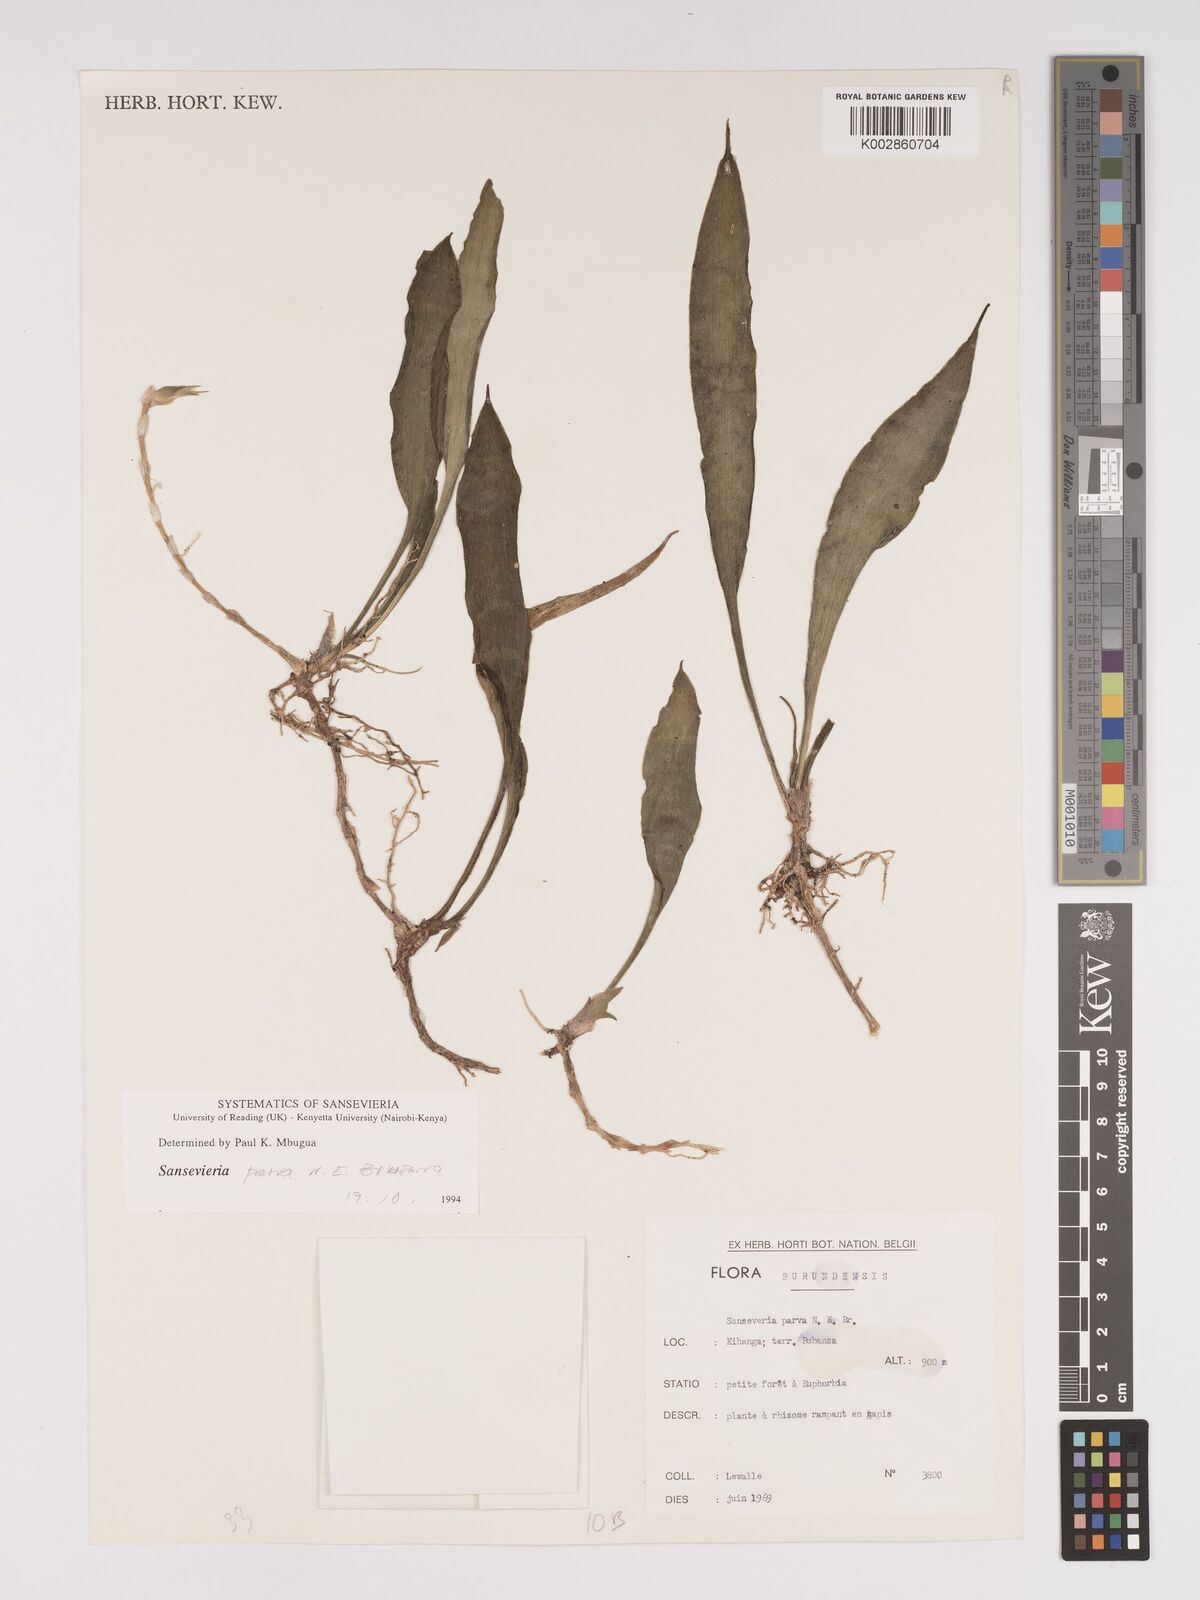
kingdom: Plantae
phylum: Tracheophyta
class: Liliopsida
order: Asparagales
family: Asparagaceae
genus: Dracaena
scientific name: Dracaena parva
